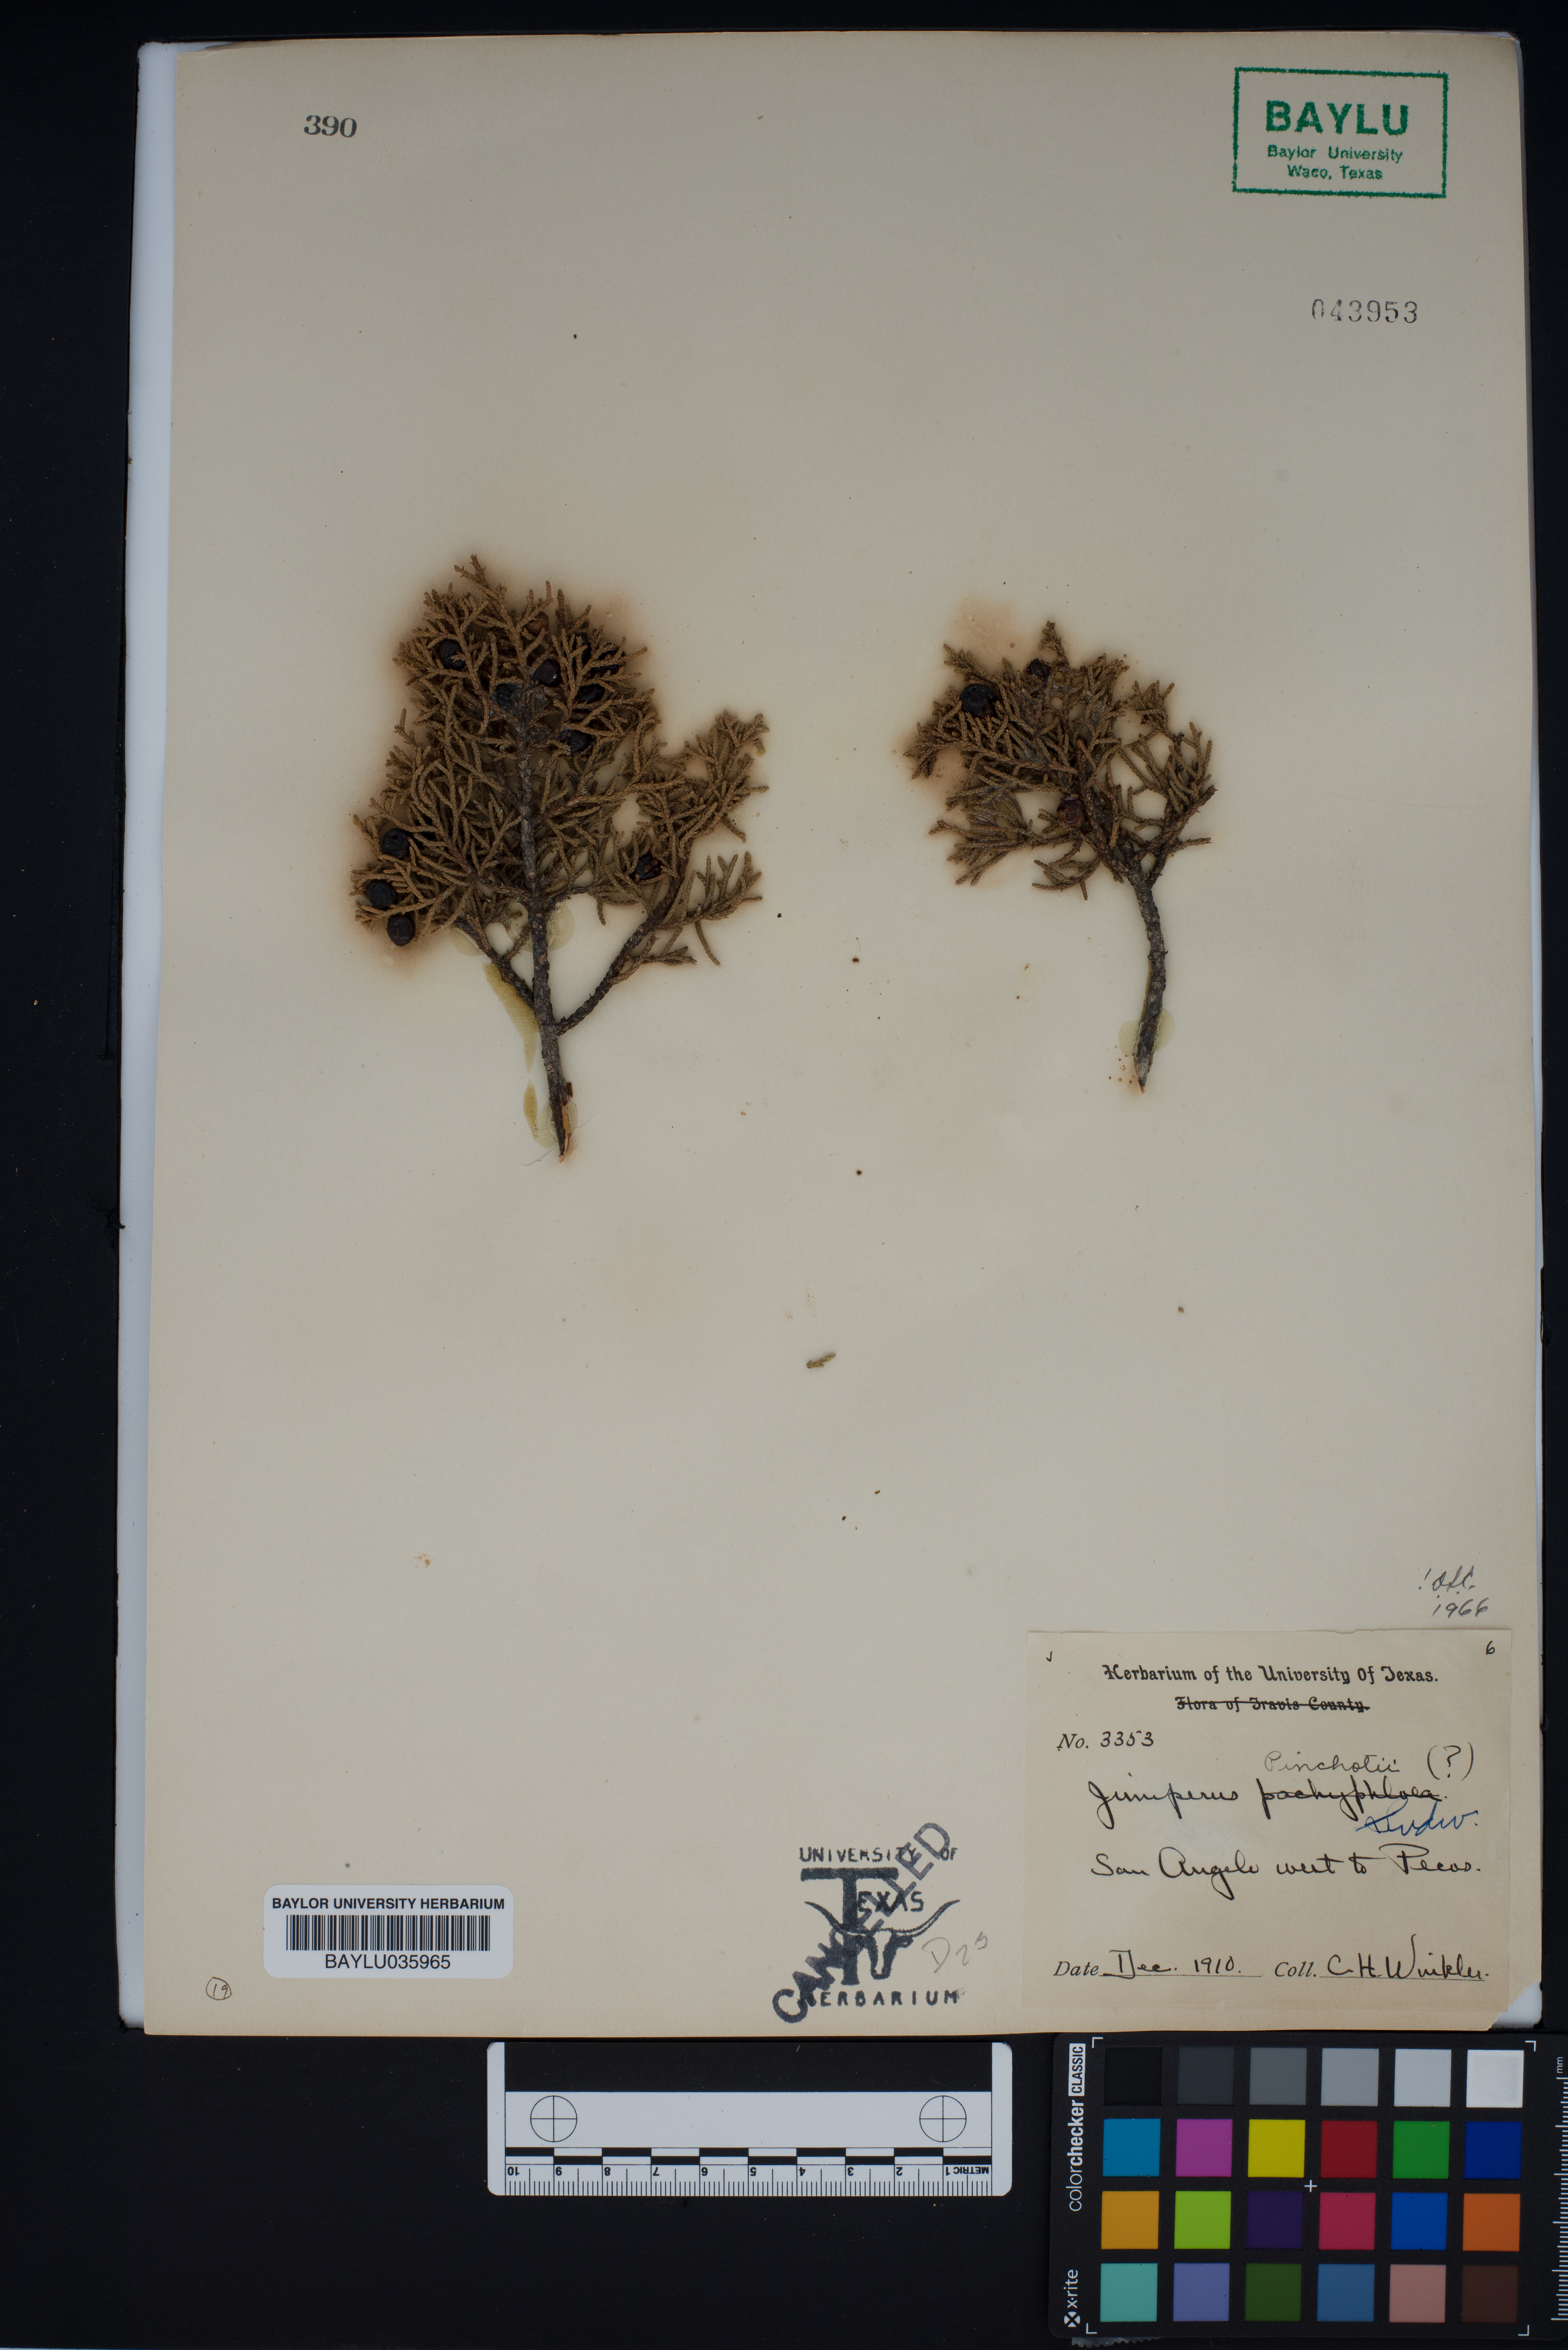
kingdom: Plantae
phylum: Tracheophyta
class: Pinopsida
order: Pinales
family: Cupressaceae
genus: Juniperus
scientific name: Juniperus pinchotii
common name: Pinchot juniper
